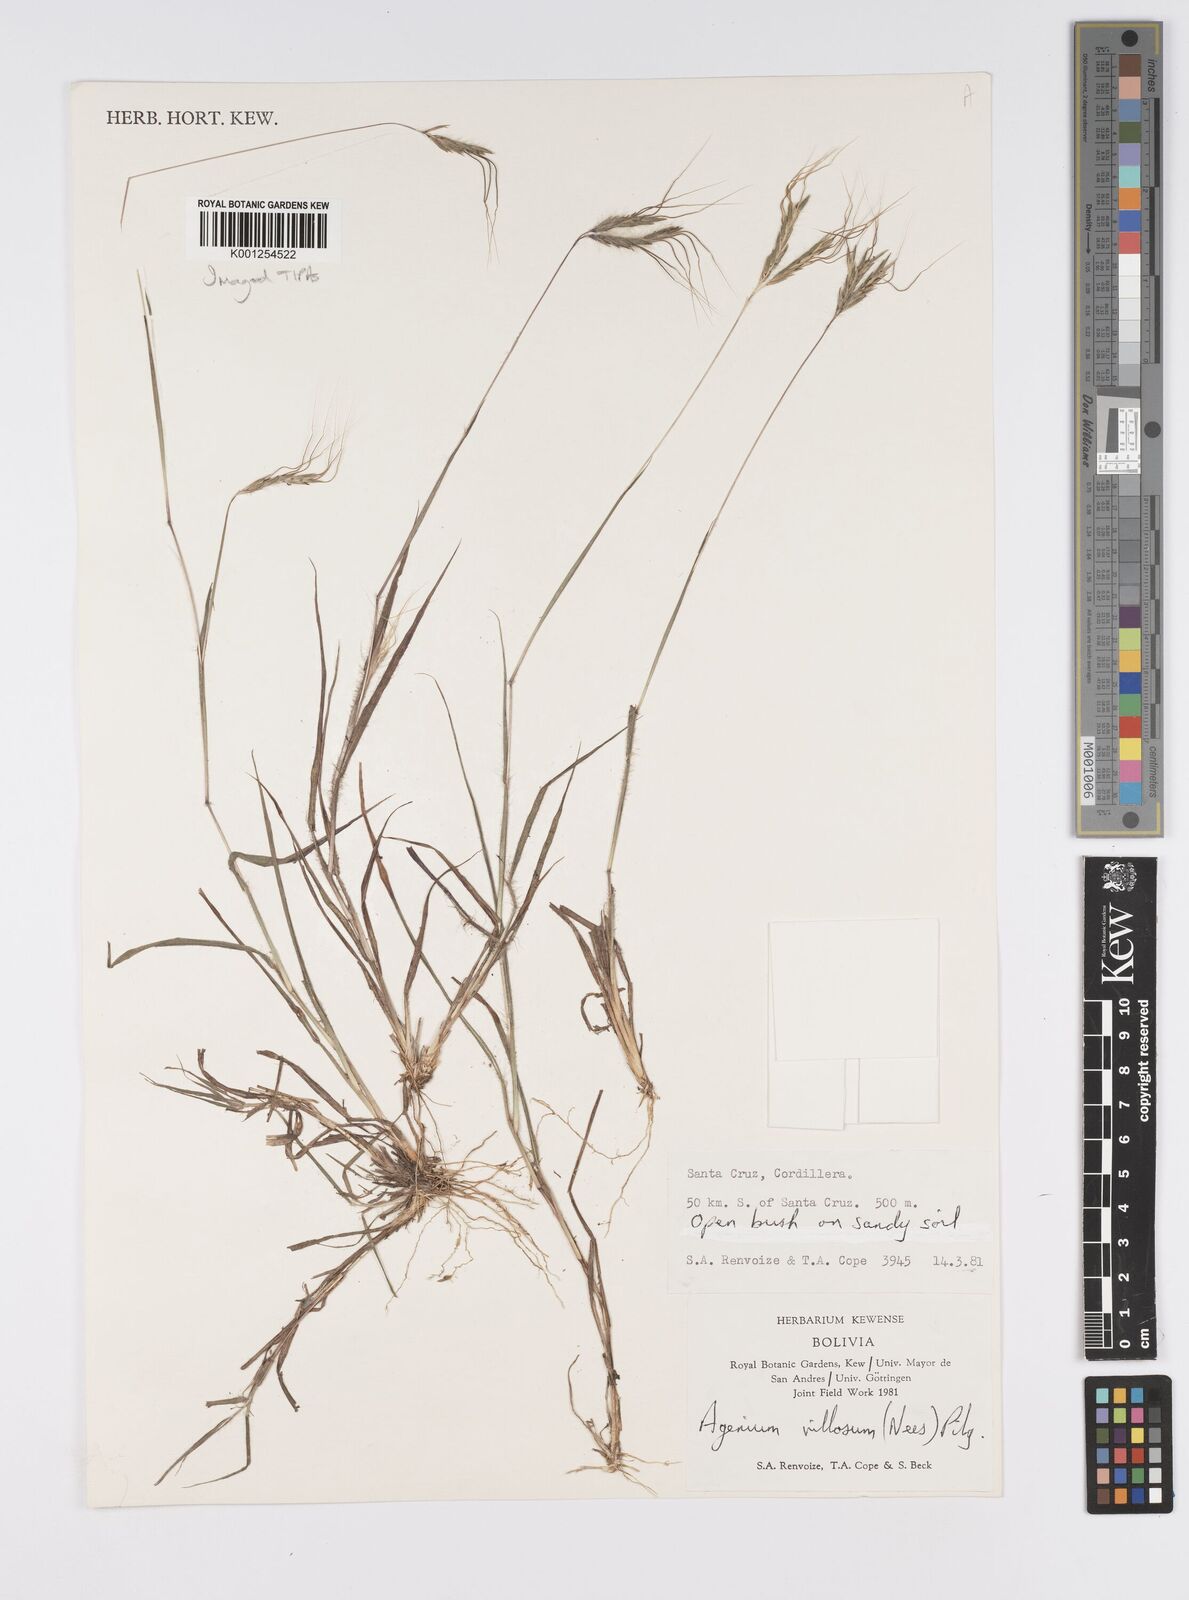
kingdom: Plantae
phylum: Tracheophyta
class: Liliopsida
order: Poales
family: Poaceae
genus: Agenium
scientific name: Agenium villosum
